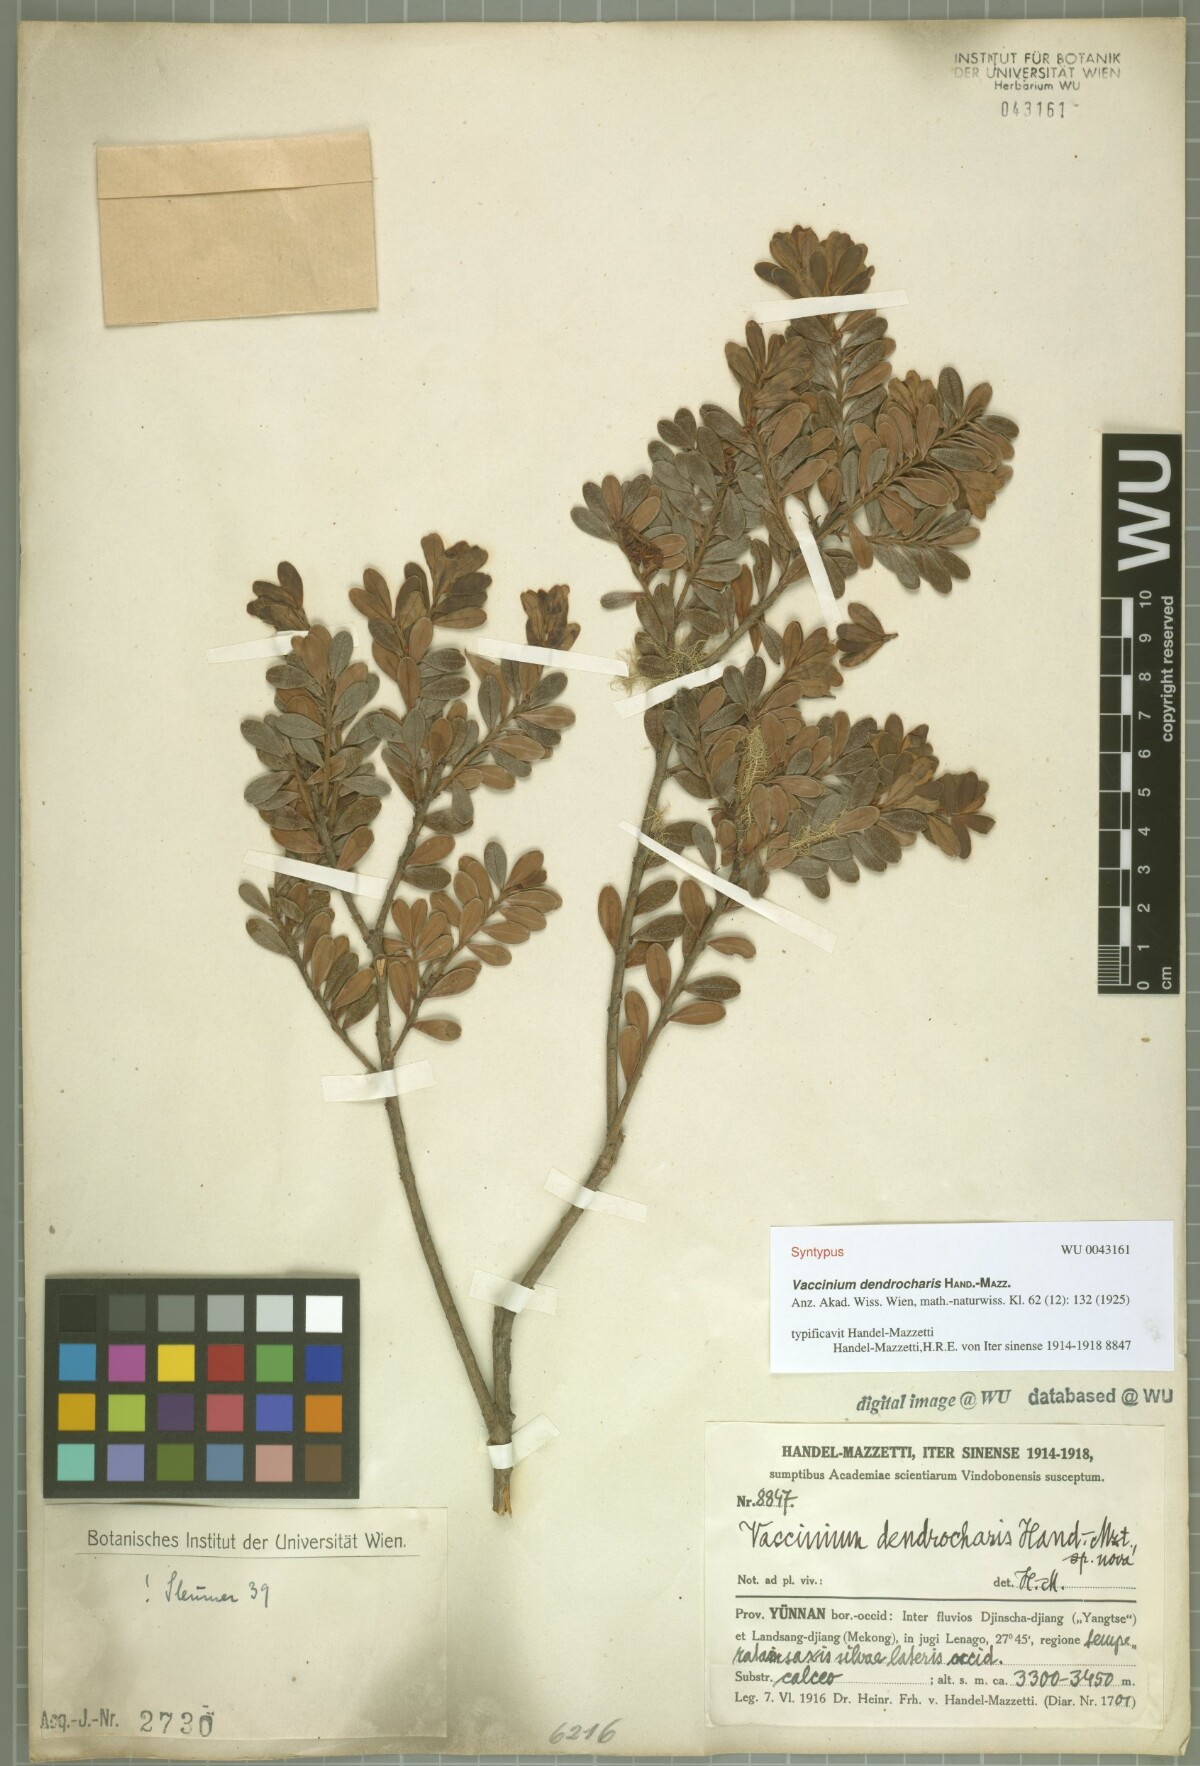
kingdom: Plantae
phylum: Tracheophyta
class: Magnoliopsida
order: Ericales
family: Ericaceae
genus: Vaccinium
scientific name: Vaccinium dendrocharis
